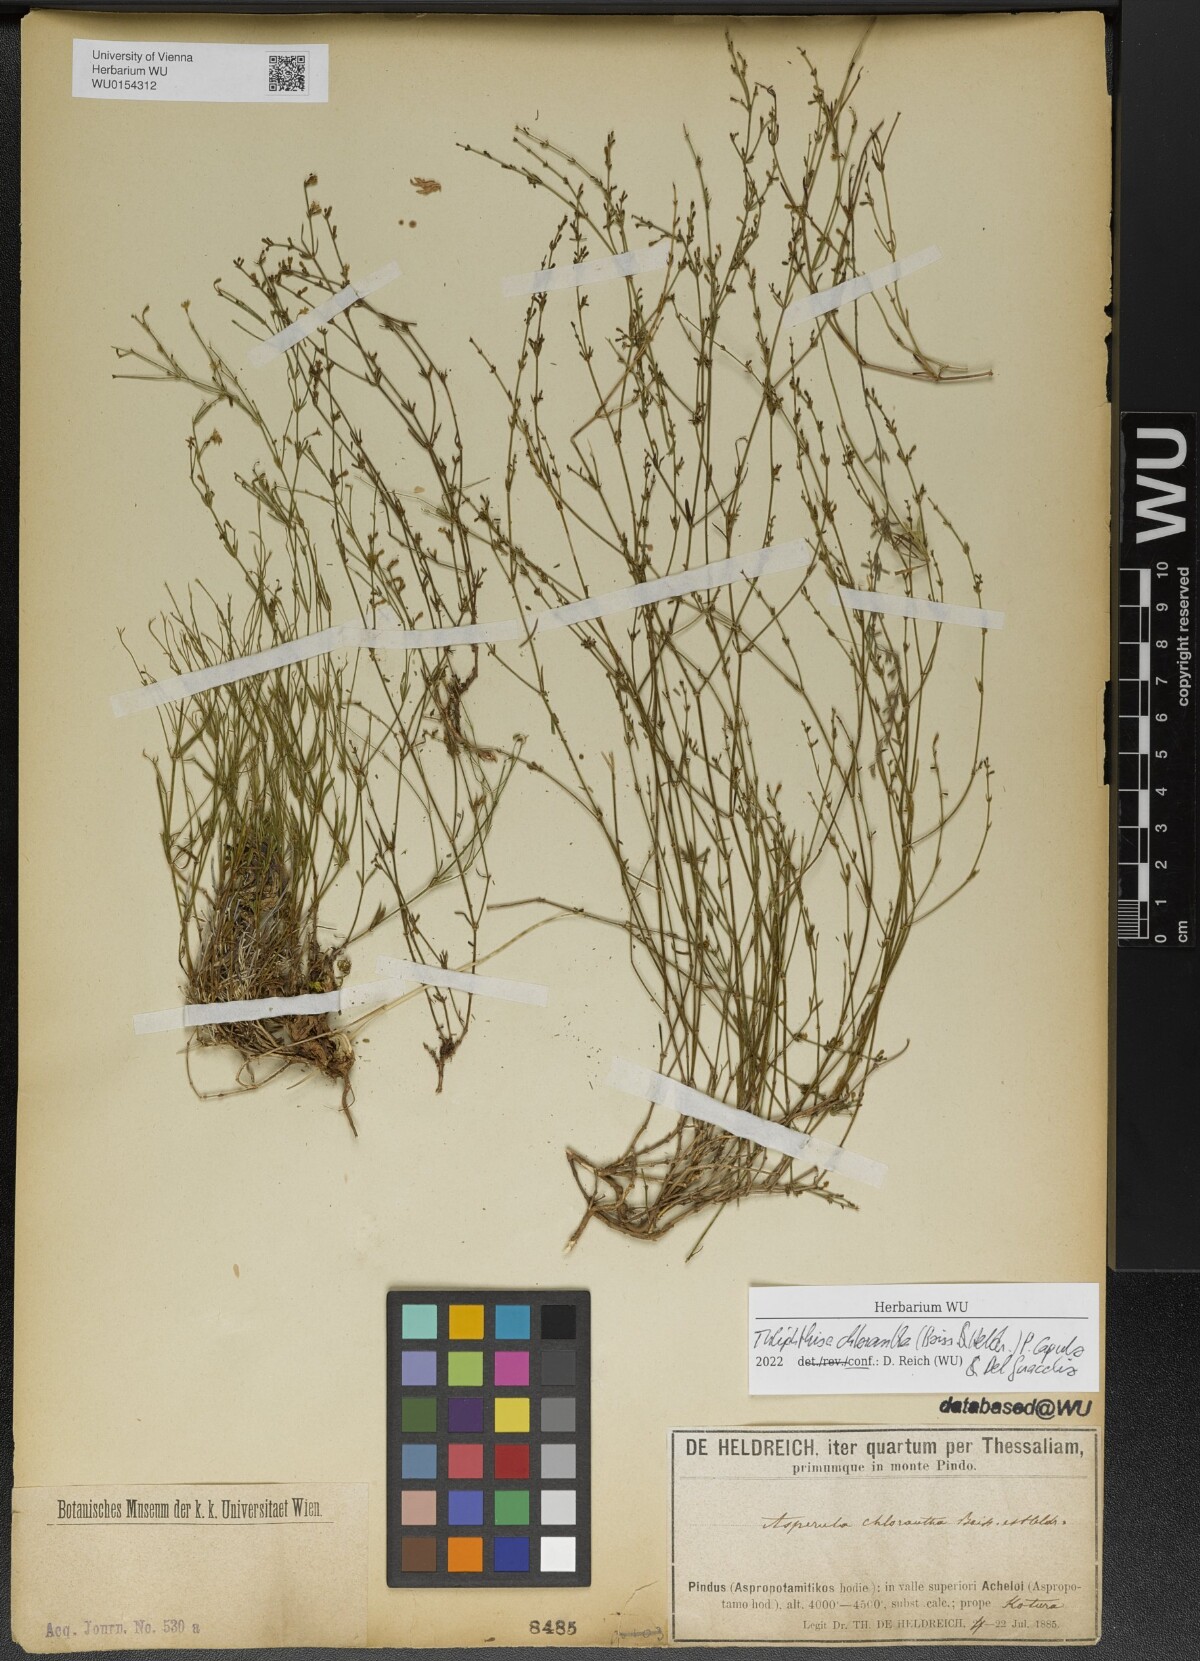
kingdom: Plantae
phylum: Tracheophyta
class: Magnoliopsida
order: Gentianales
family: Rubiaceae
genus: Thliphthisa
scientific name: Thliphthisa chlorantha
